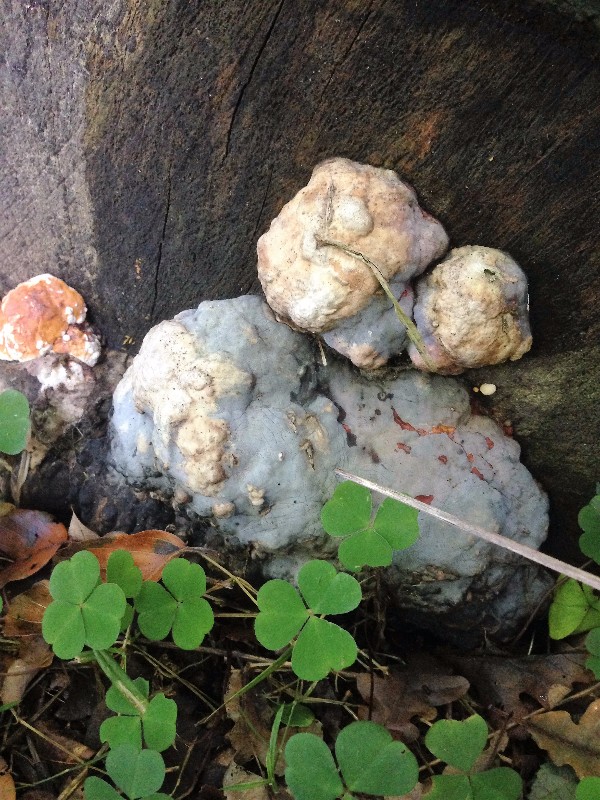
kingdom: Fungi
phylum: Basidiomycota
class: Agaricomycetes
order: Polyporales
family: Fomitopsidaceae
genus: Fomitopsis
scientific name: Fomitopsis pinicola
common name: randbæltet hovporesvamp
